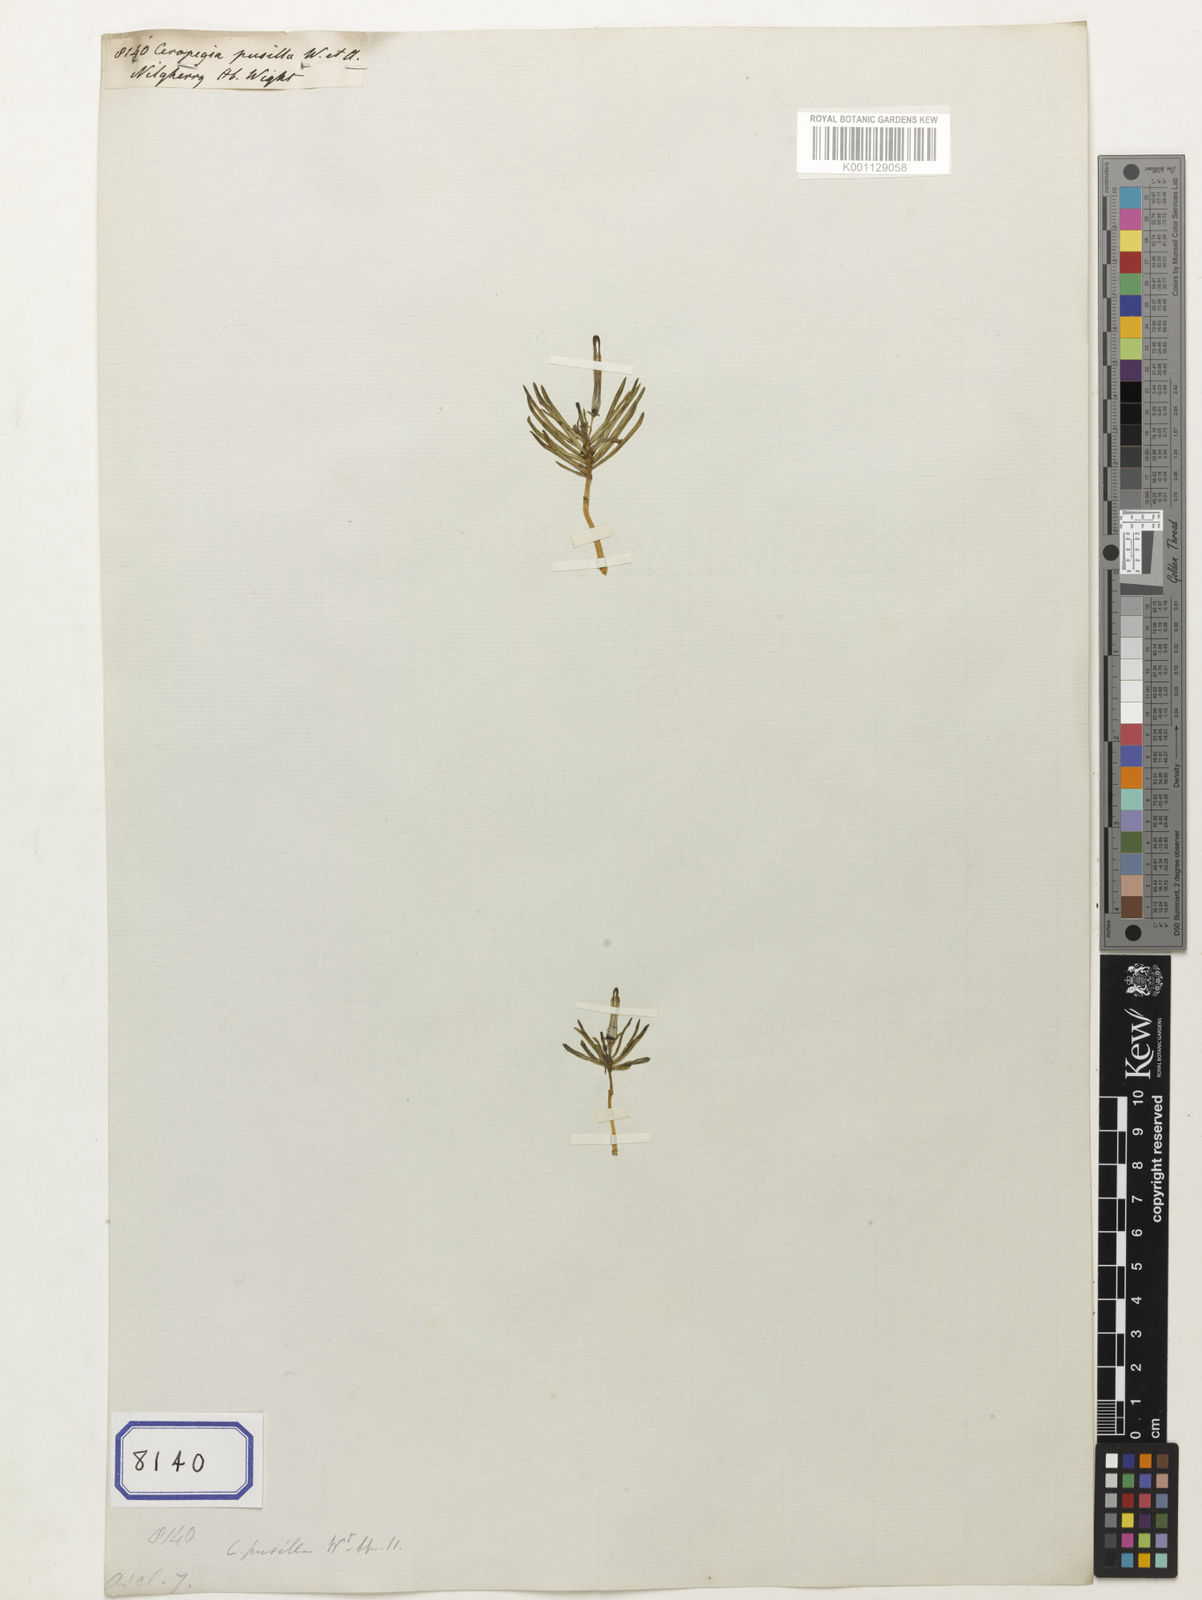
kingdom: Plantae
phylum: Tracheophyta
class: Magnoliopsida
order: Gentianales
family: Apocynaceae
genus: Ceropegia
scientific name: Ceropegia pusilla
